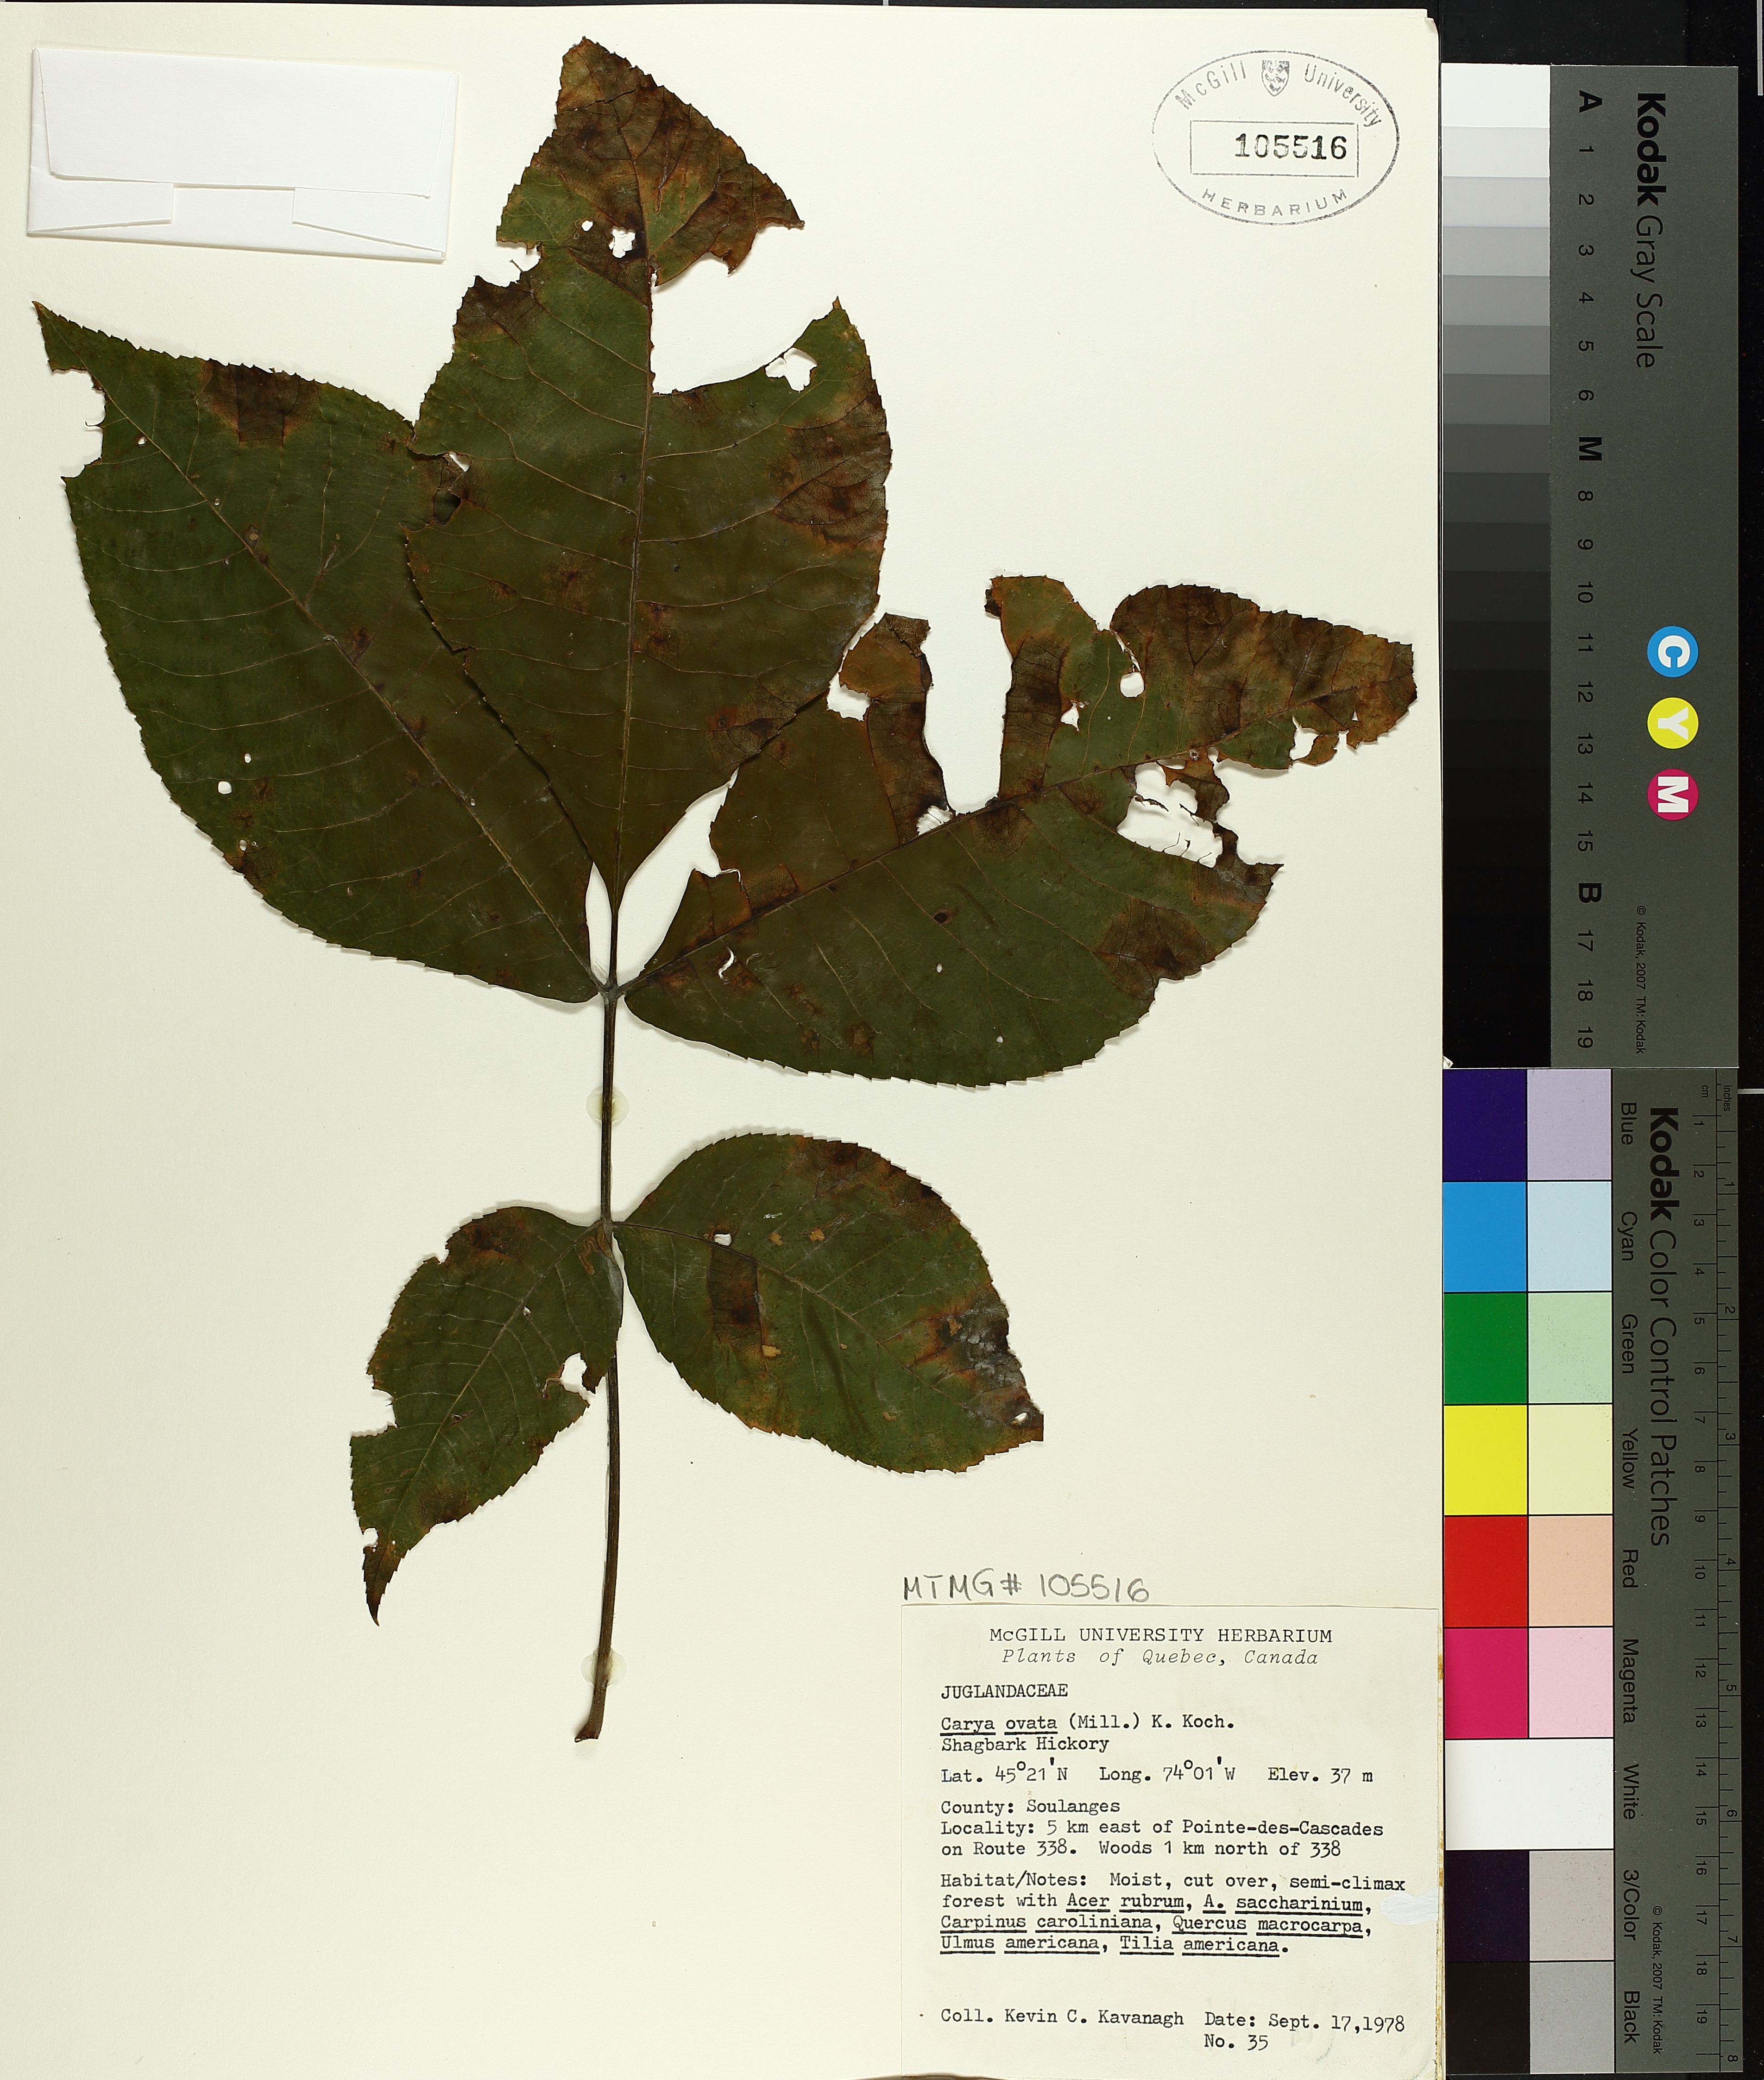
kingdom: Plantae
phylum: Tracheophyta
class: Magnoliopsida
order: Fagales
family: Juglandaceae
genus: Carya
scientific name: Carya ovata
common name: Shagbark hickory
